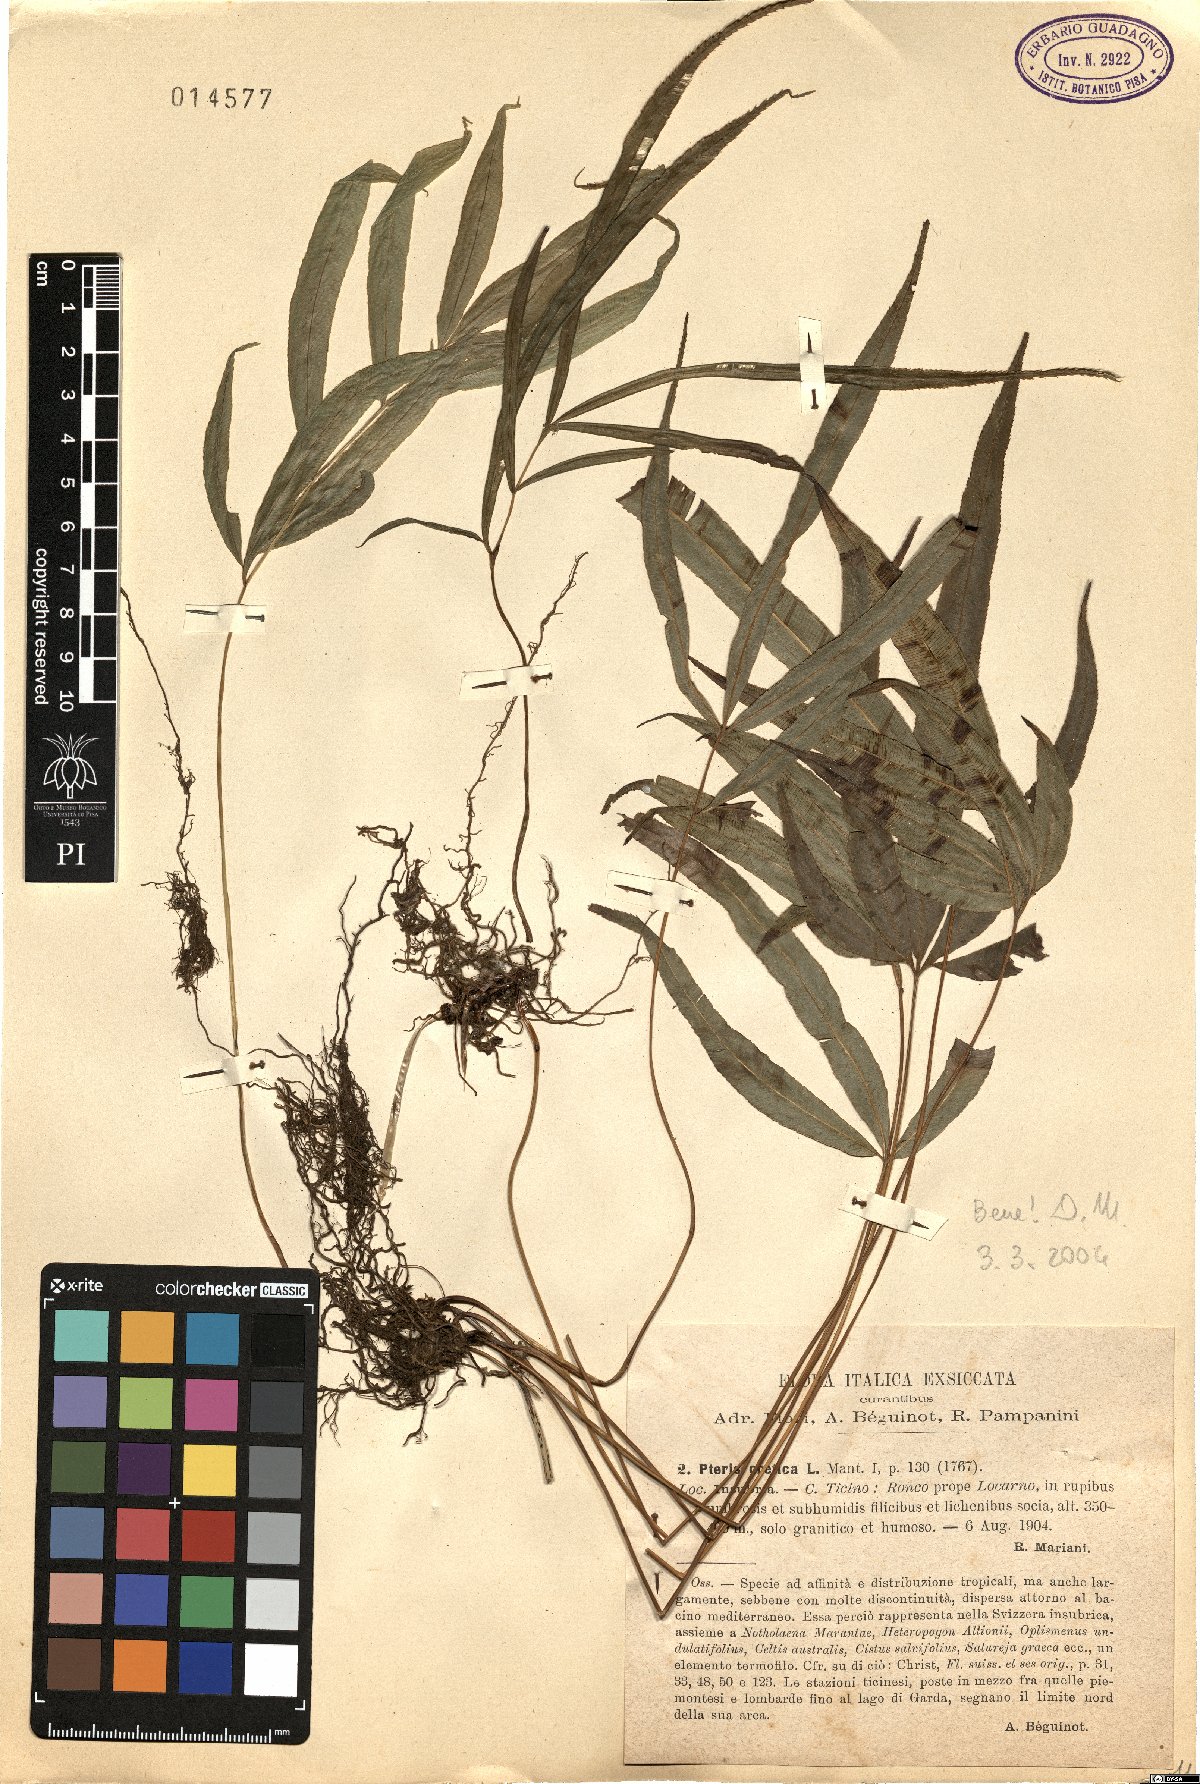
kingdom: Plantae
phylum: Tracheophyta
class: Polypodiopsida
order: Polypodiales
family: Pteridaceae
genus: Pteris
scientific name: Pteris cretica
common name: Ribbon fern
